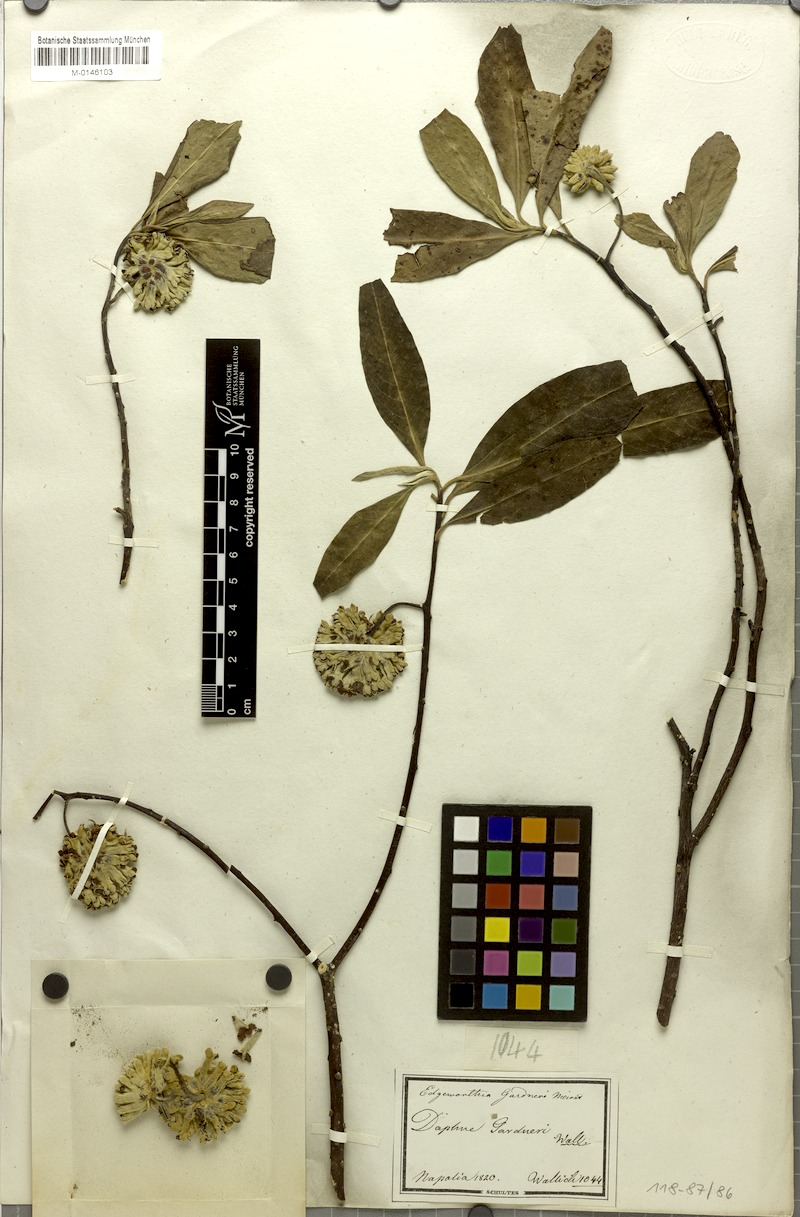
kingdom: Plantae
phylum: Tracheophyta
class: Magnoliopsida
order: Malvales
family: Thymelaeaceae
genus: Edgeworthia
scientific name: Edgeworthia gardneri
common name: Nepalese paperbush
